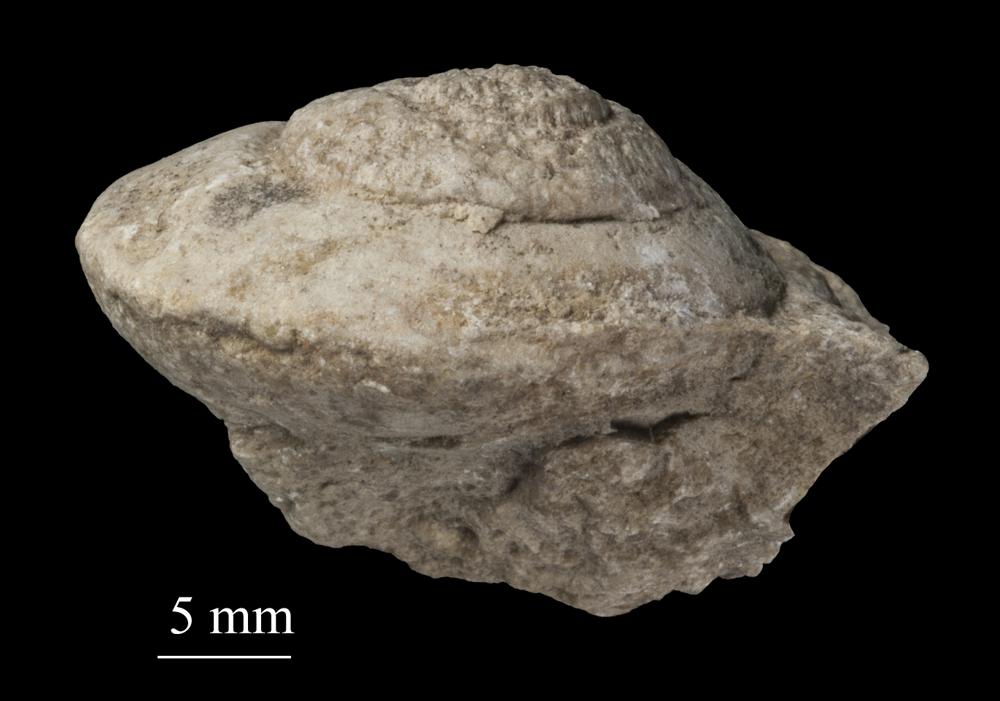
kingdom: Animalia
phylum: Mollusca
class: Gastropoda
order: Pleurotomariida
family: Pleurotomariidae
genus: Pleurotomaria
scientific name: Pleurotomaria
